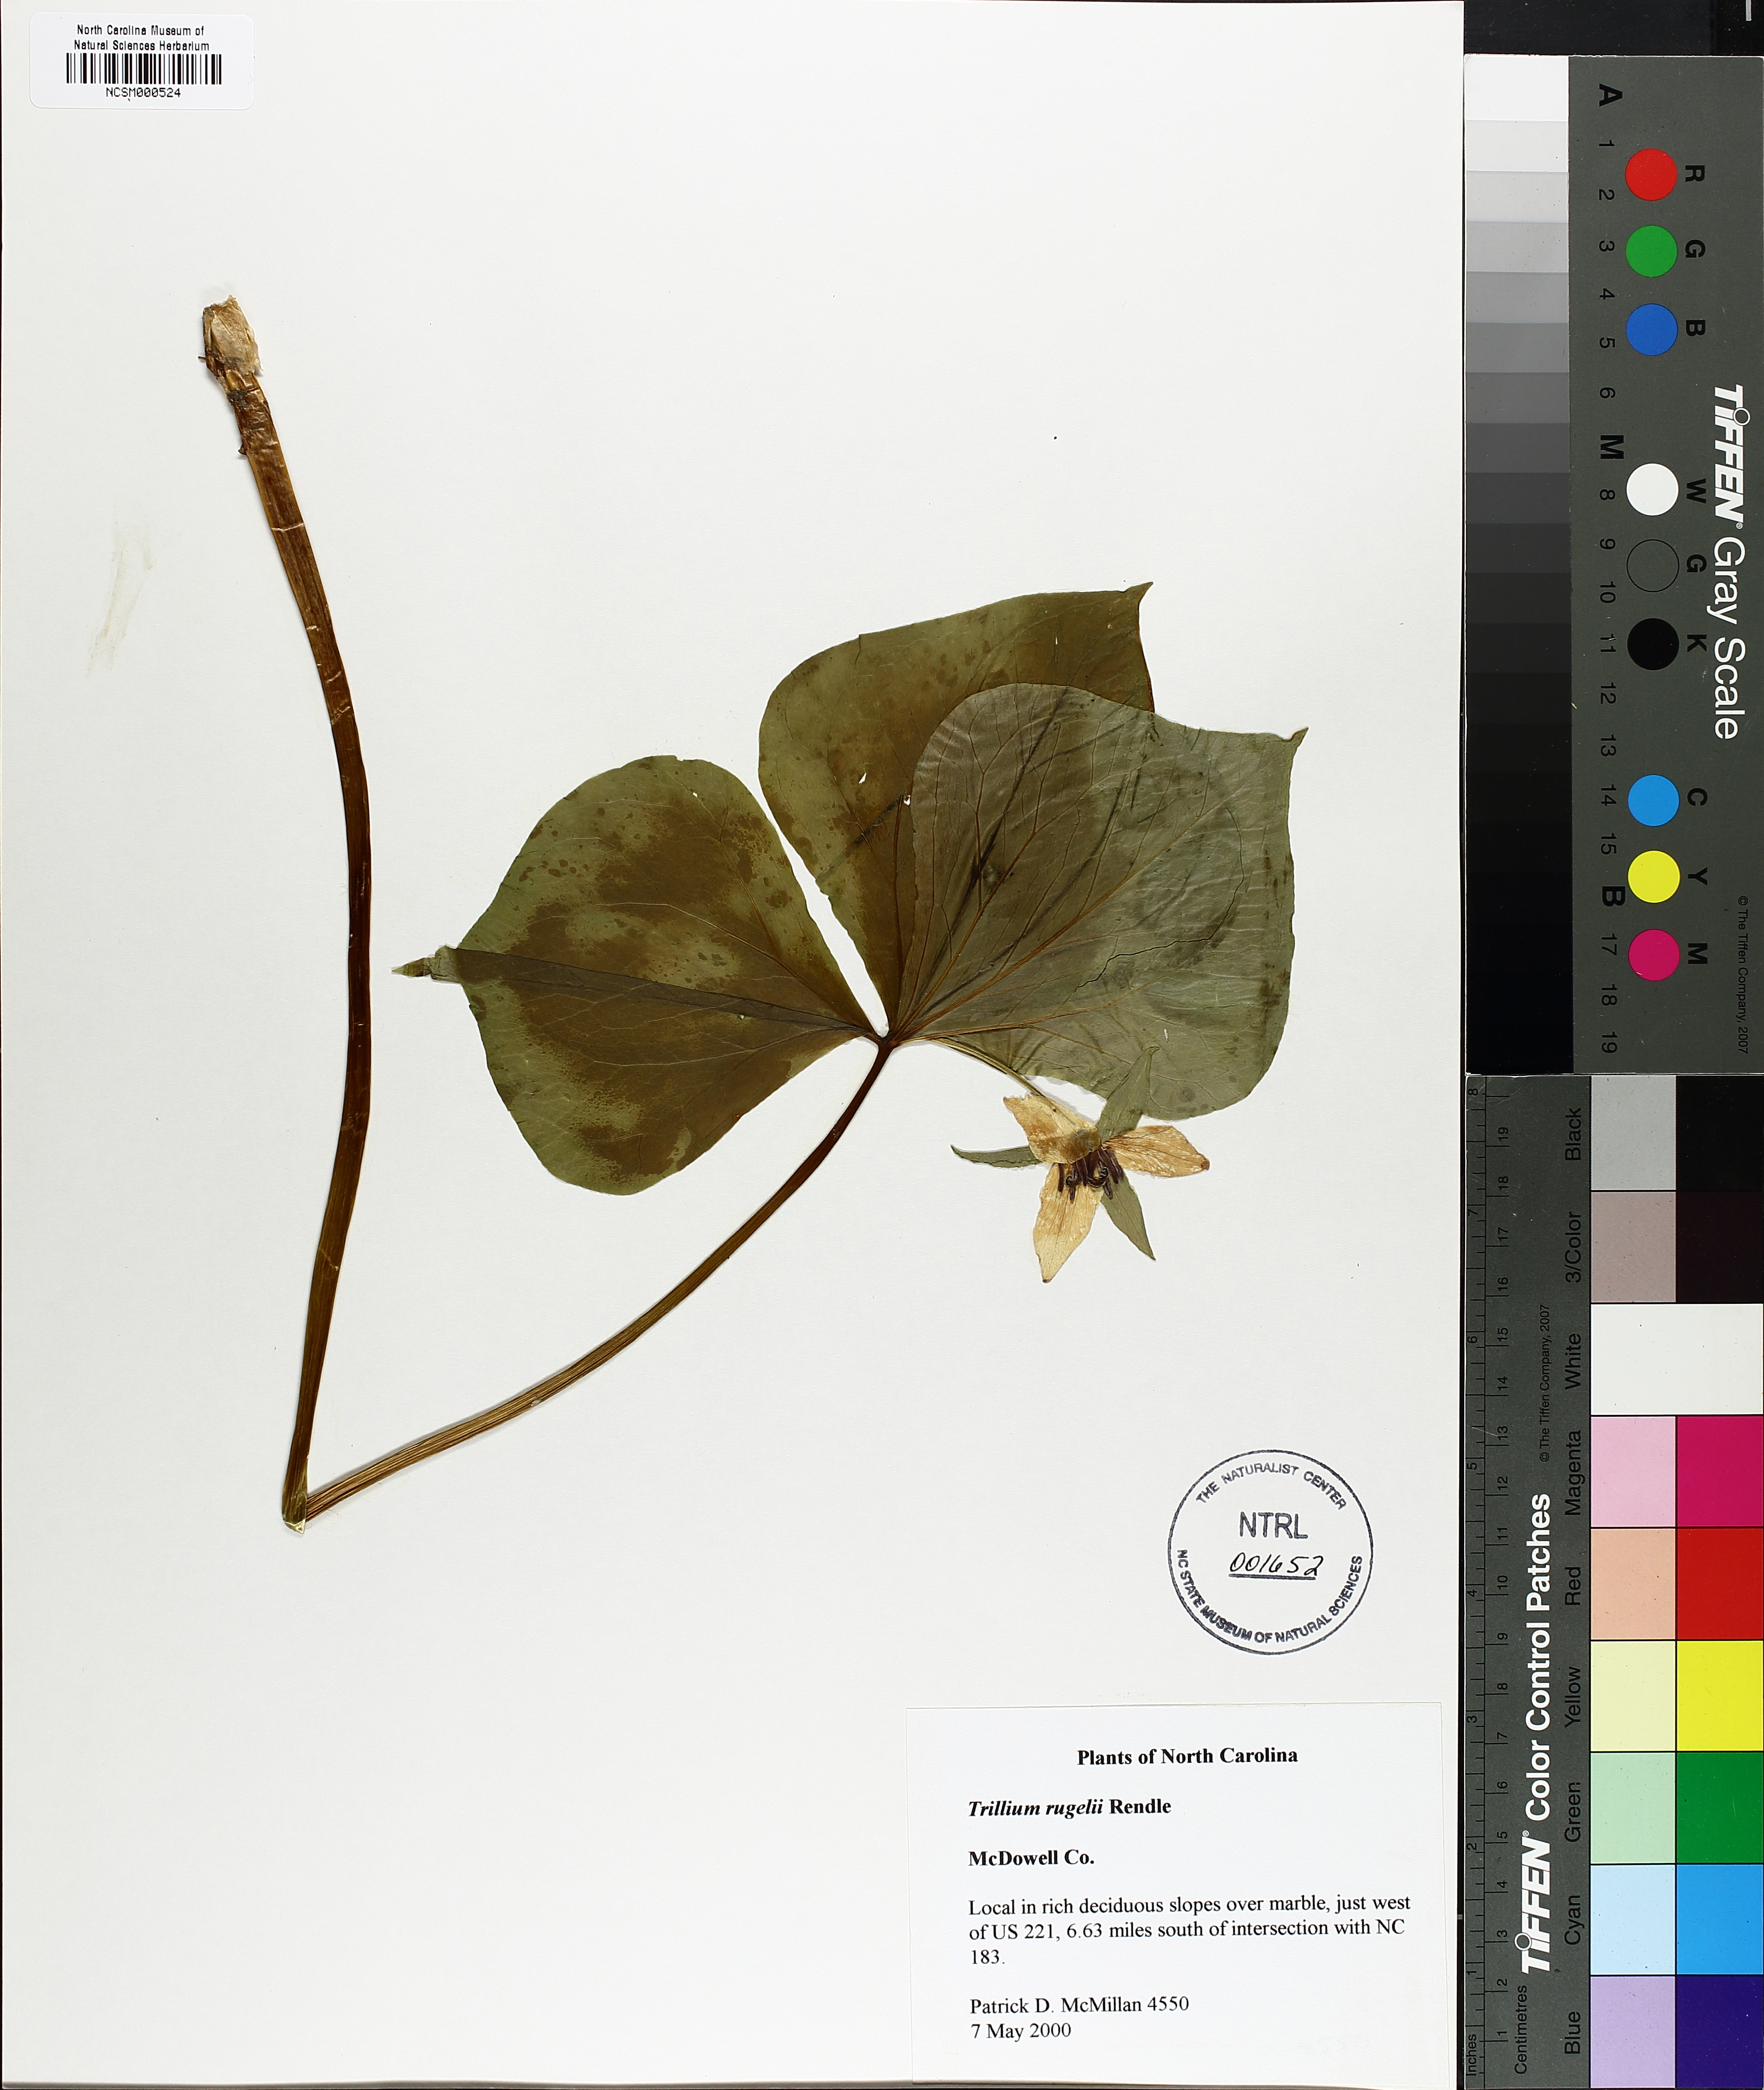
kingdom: Plantae
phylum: Tracheophyta
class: Liliopsida
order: Liliales
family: Melanthiaceae
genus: Trillium
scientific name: Trillium rugelii
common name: Ill-scented trillium
